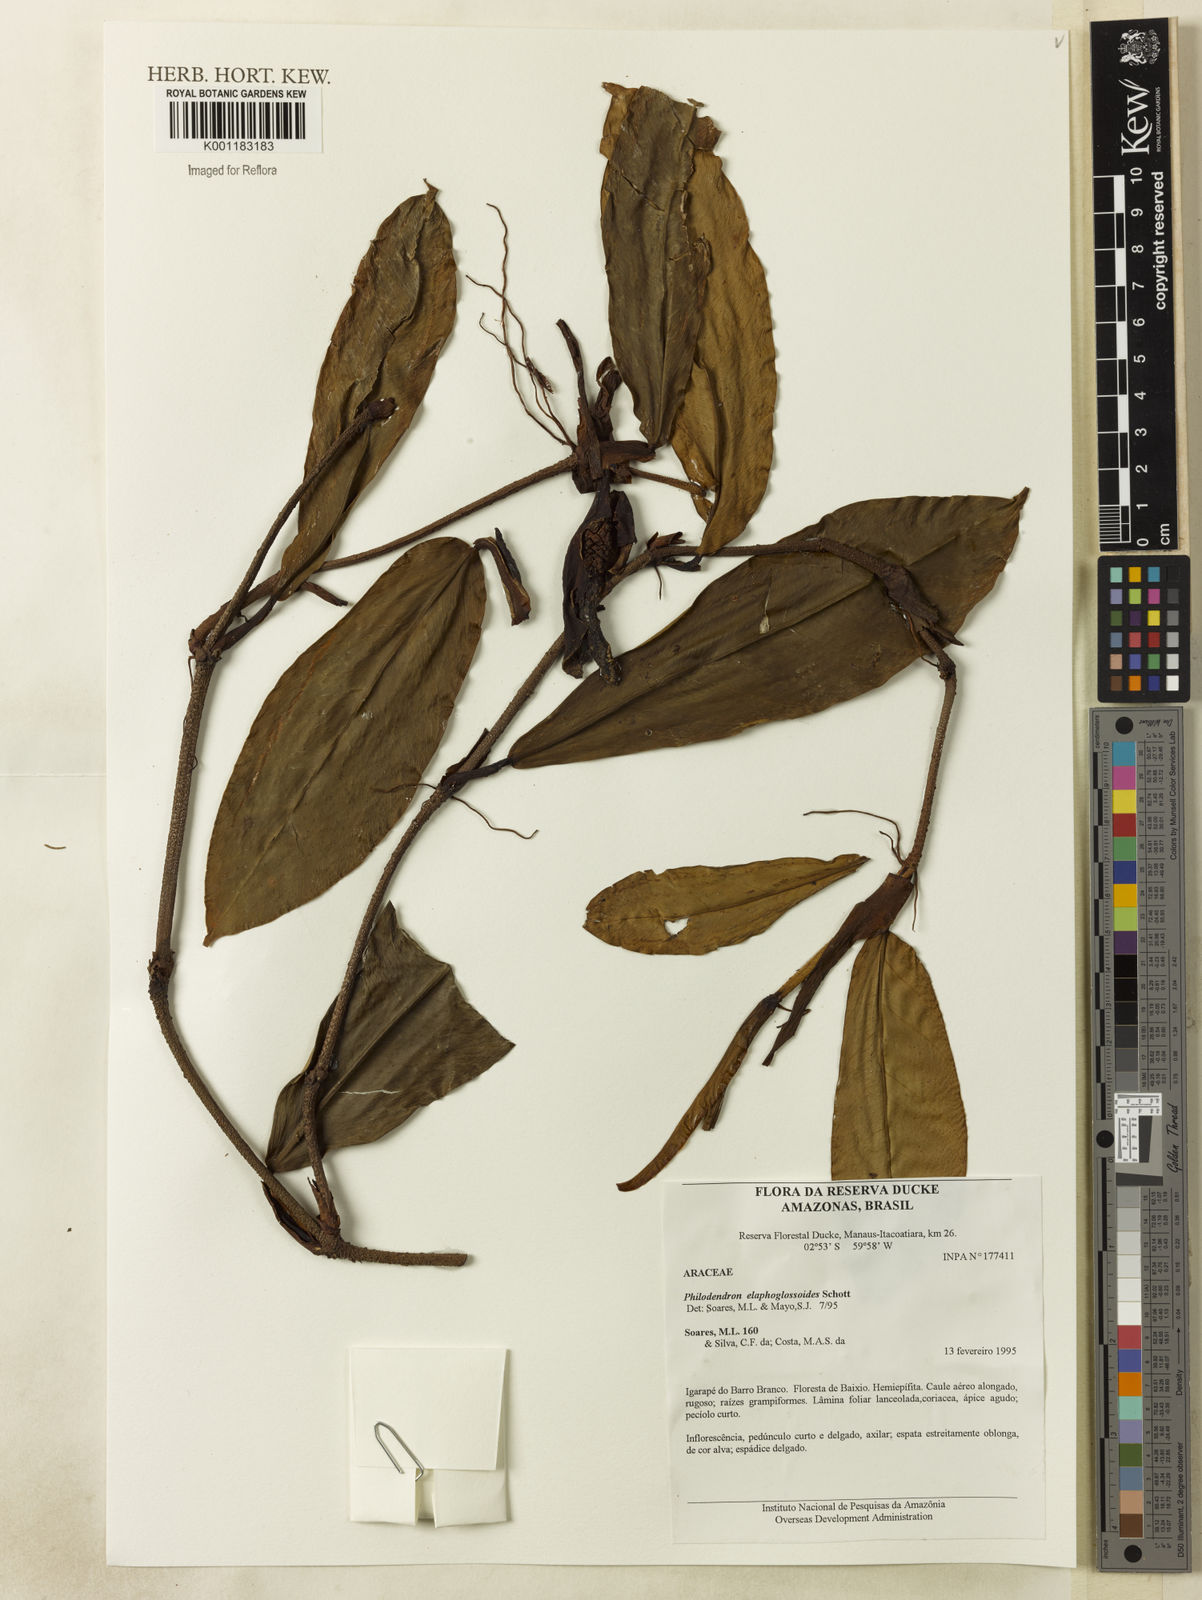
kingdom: Plantae
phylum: Tracheophyta
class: Liliopsida
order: Alismatales
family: Araceae
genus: Philodendron
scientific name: Philodendron elaphoglossoides
